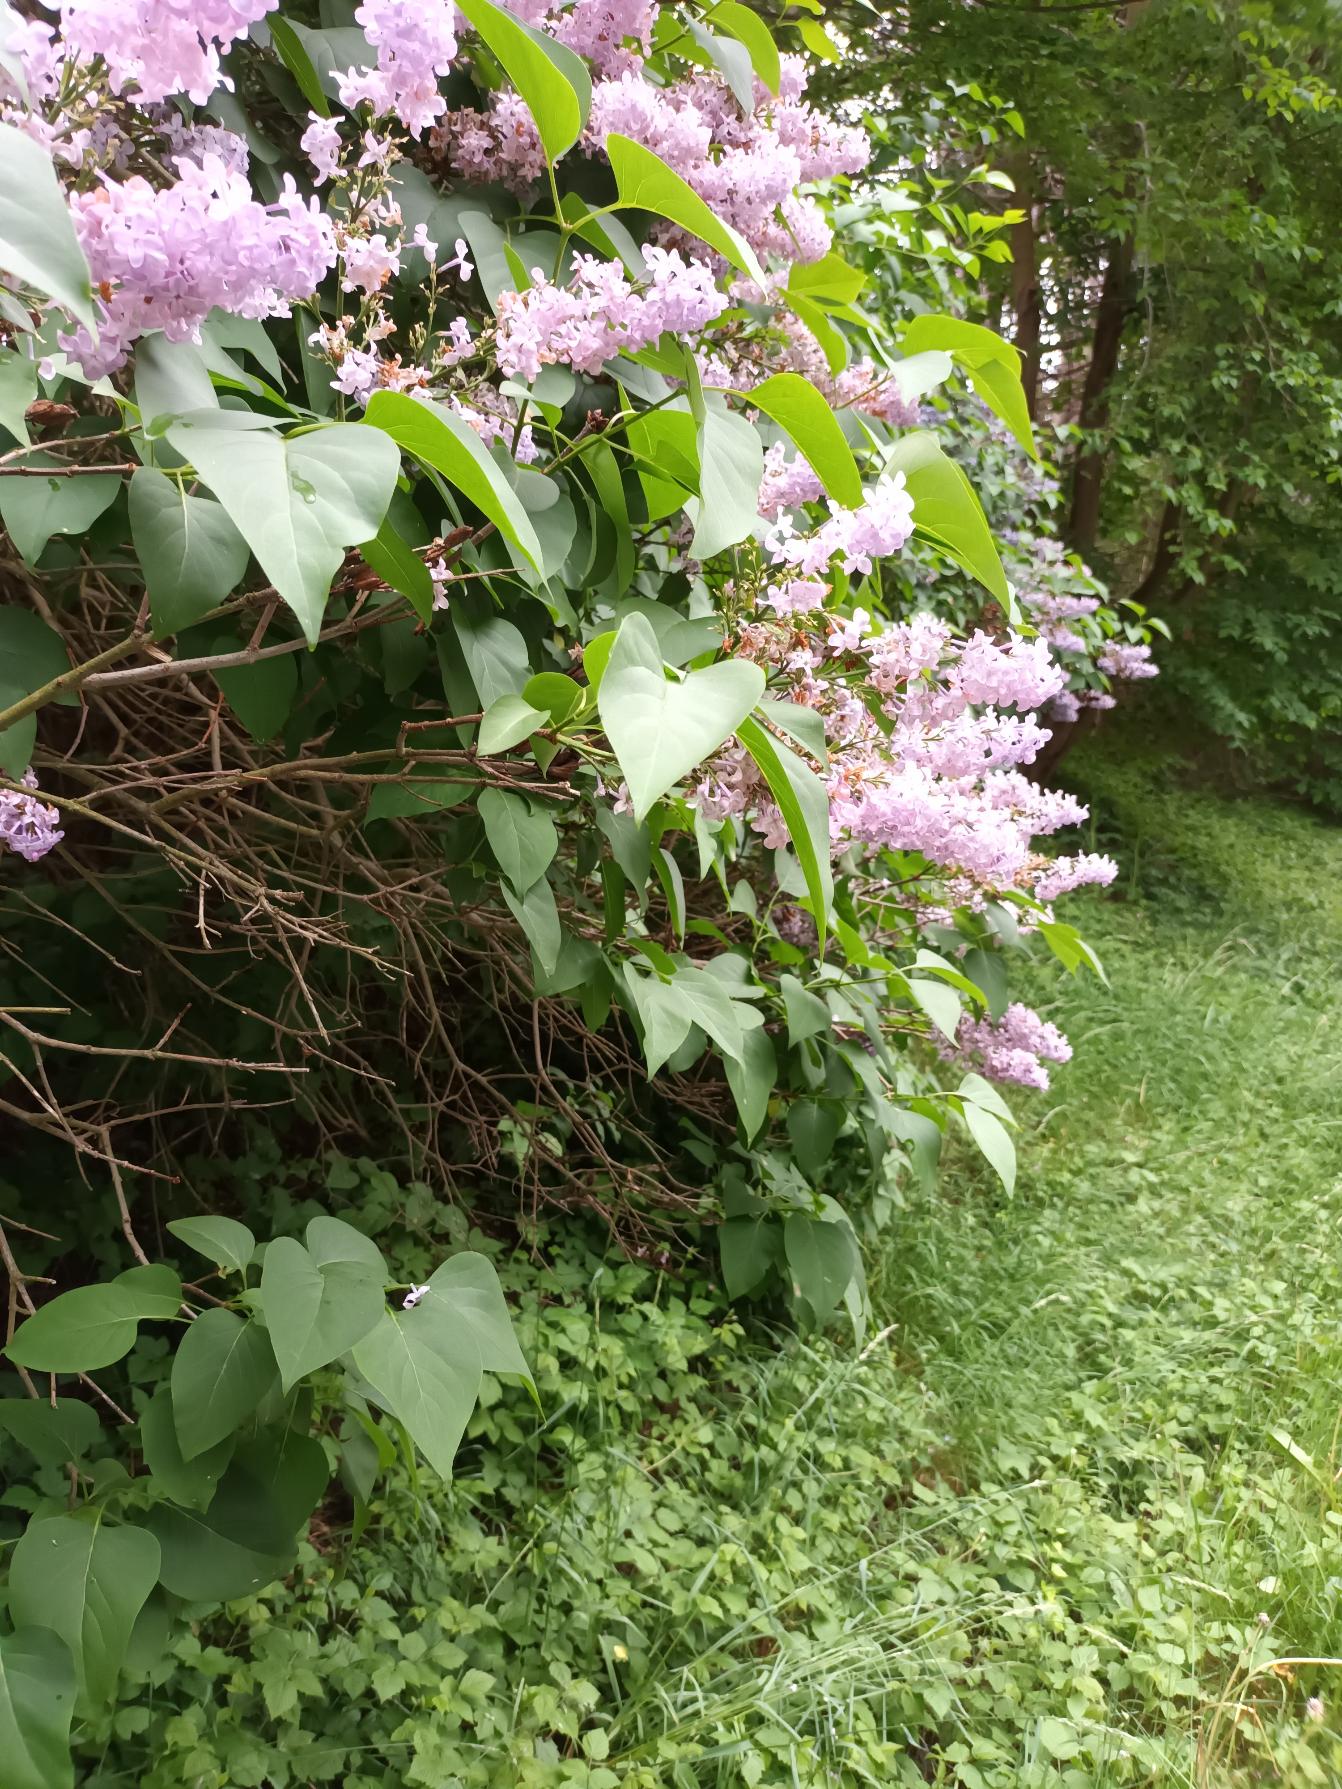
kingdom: Plantae
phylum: Tracheophyta
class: Magnoliopsida
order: Lamiales
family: Oleaceae
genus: Syringa
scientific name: Syringa vulgaris
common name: Syren
